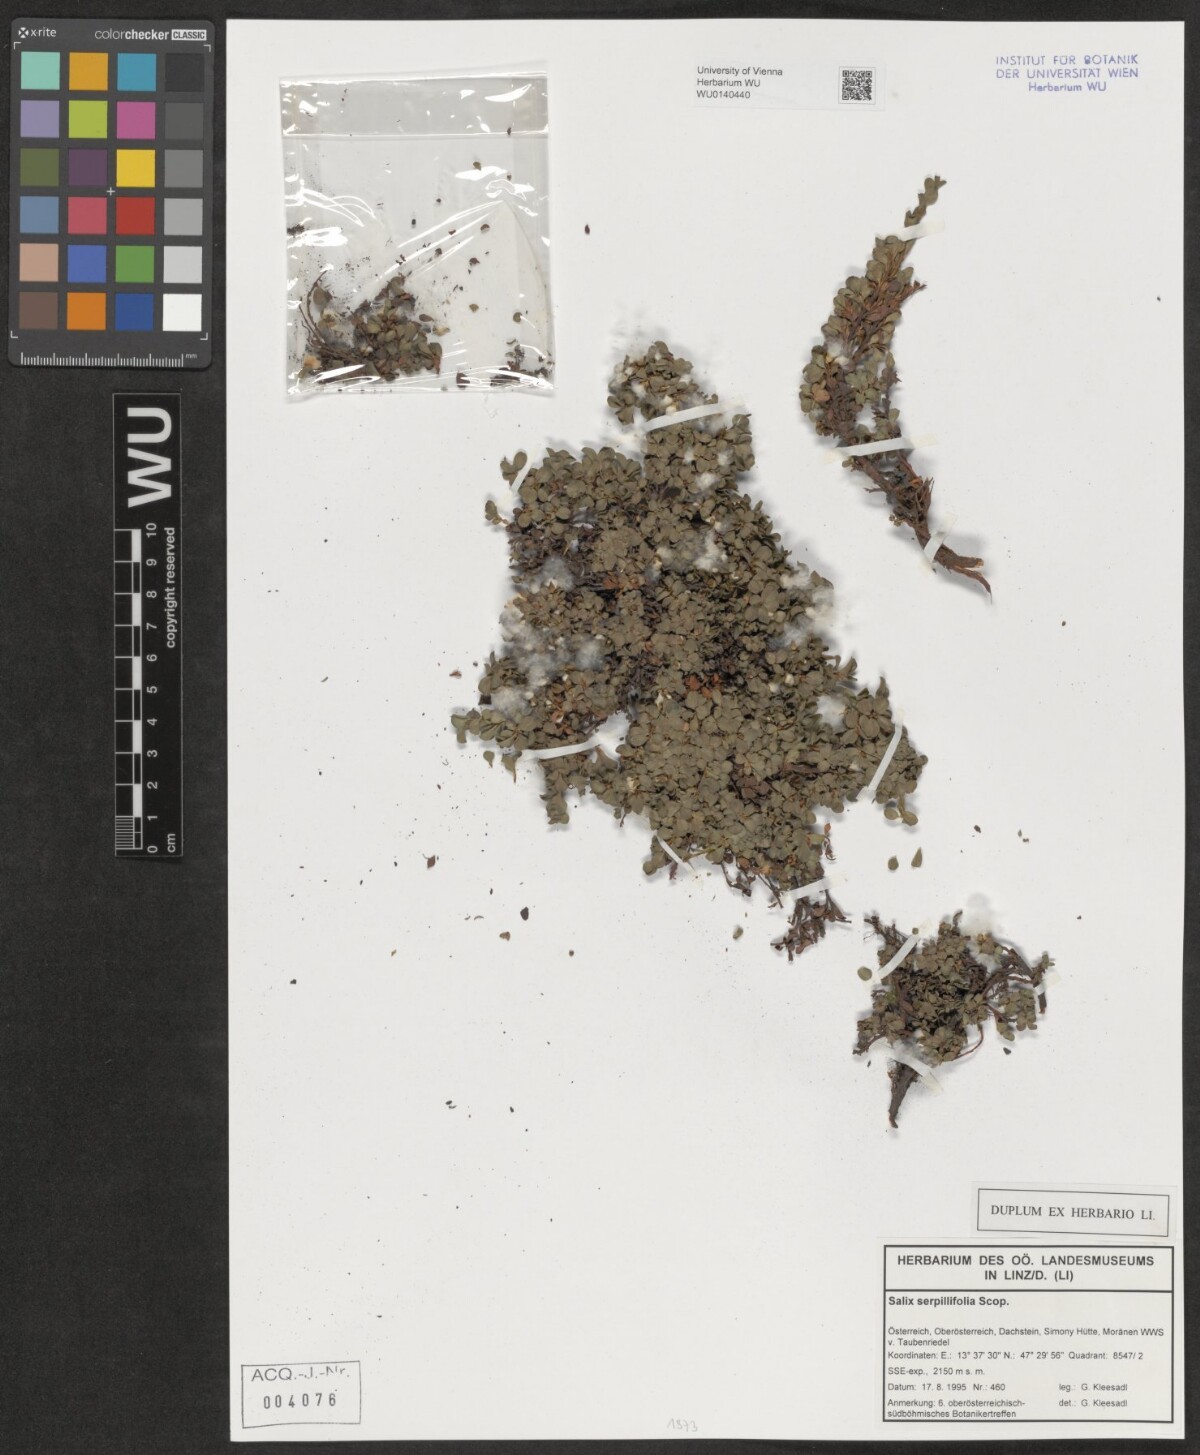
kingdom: Plantae
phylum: Tracheophyta
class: Magnoliopsida
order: Malpighiales
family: Salicaceae
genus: Salix
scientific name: Salix serpillifolia
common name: Thyme-leaf willow
